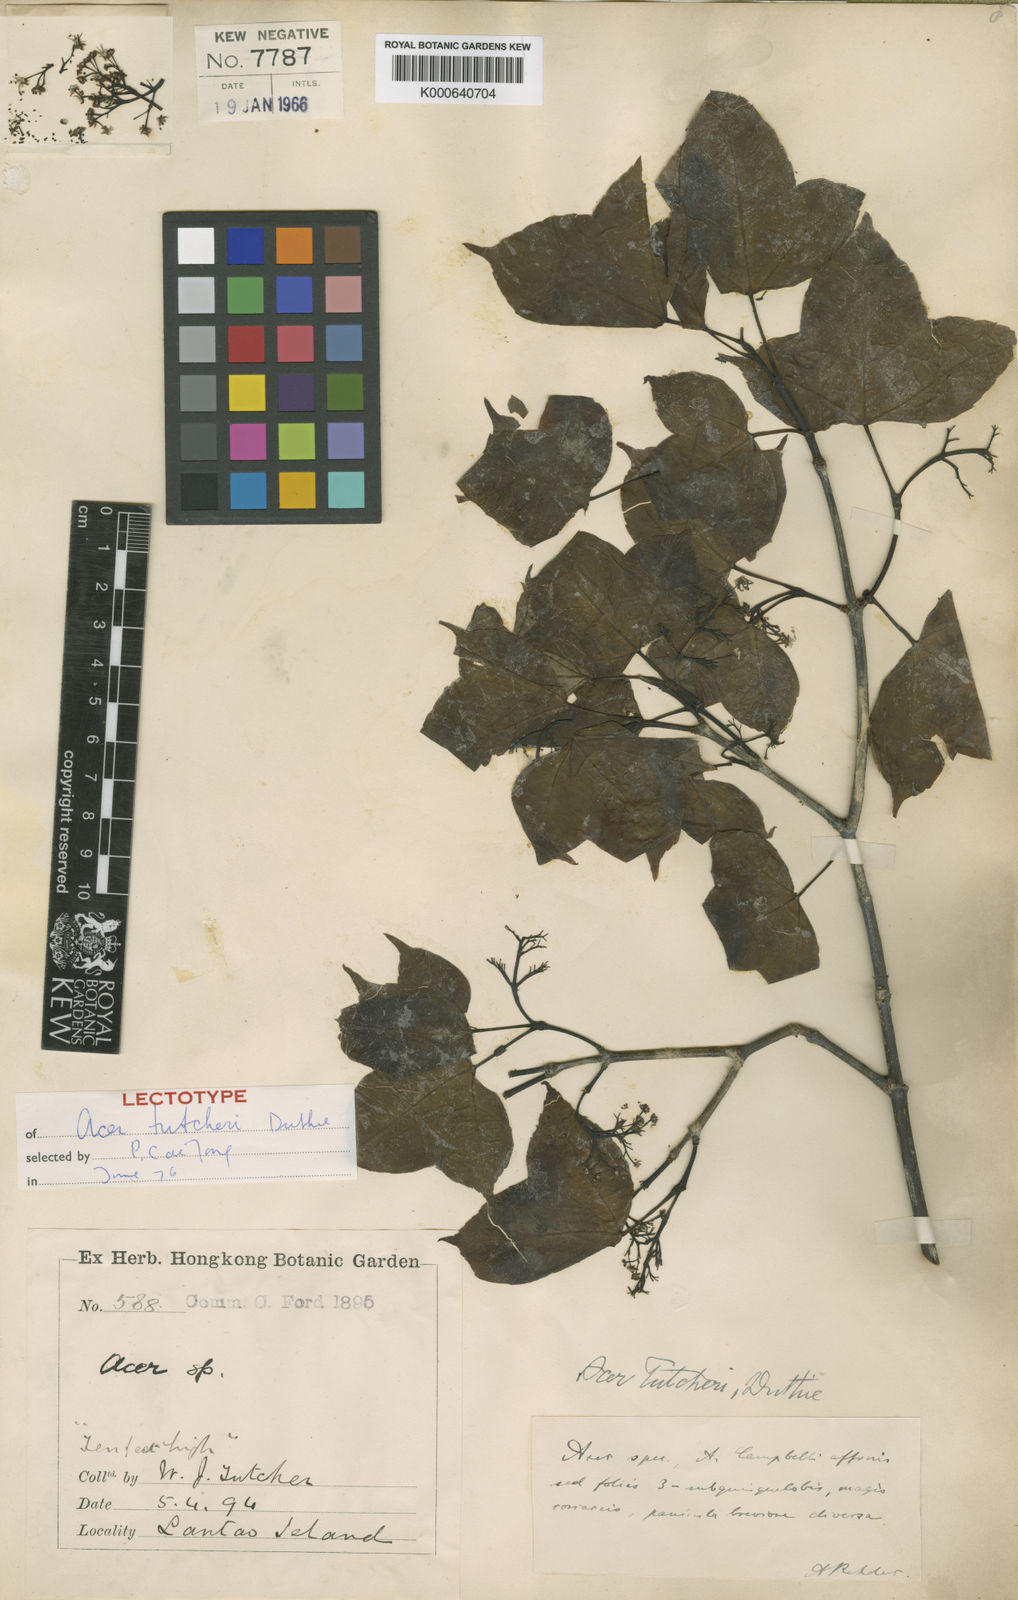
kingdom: Plantae
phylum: Tracheophyta
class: Magnoliopsida
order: Sapindales
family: Sapindaceae
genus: Acer
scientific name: Acer tutcheri
